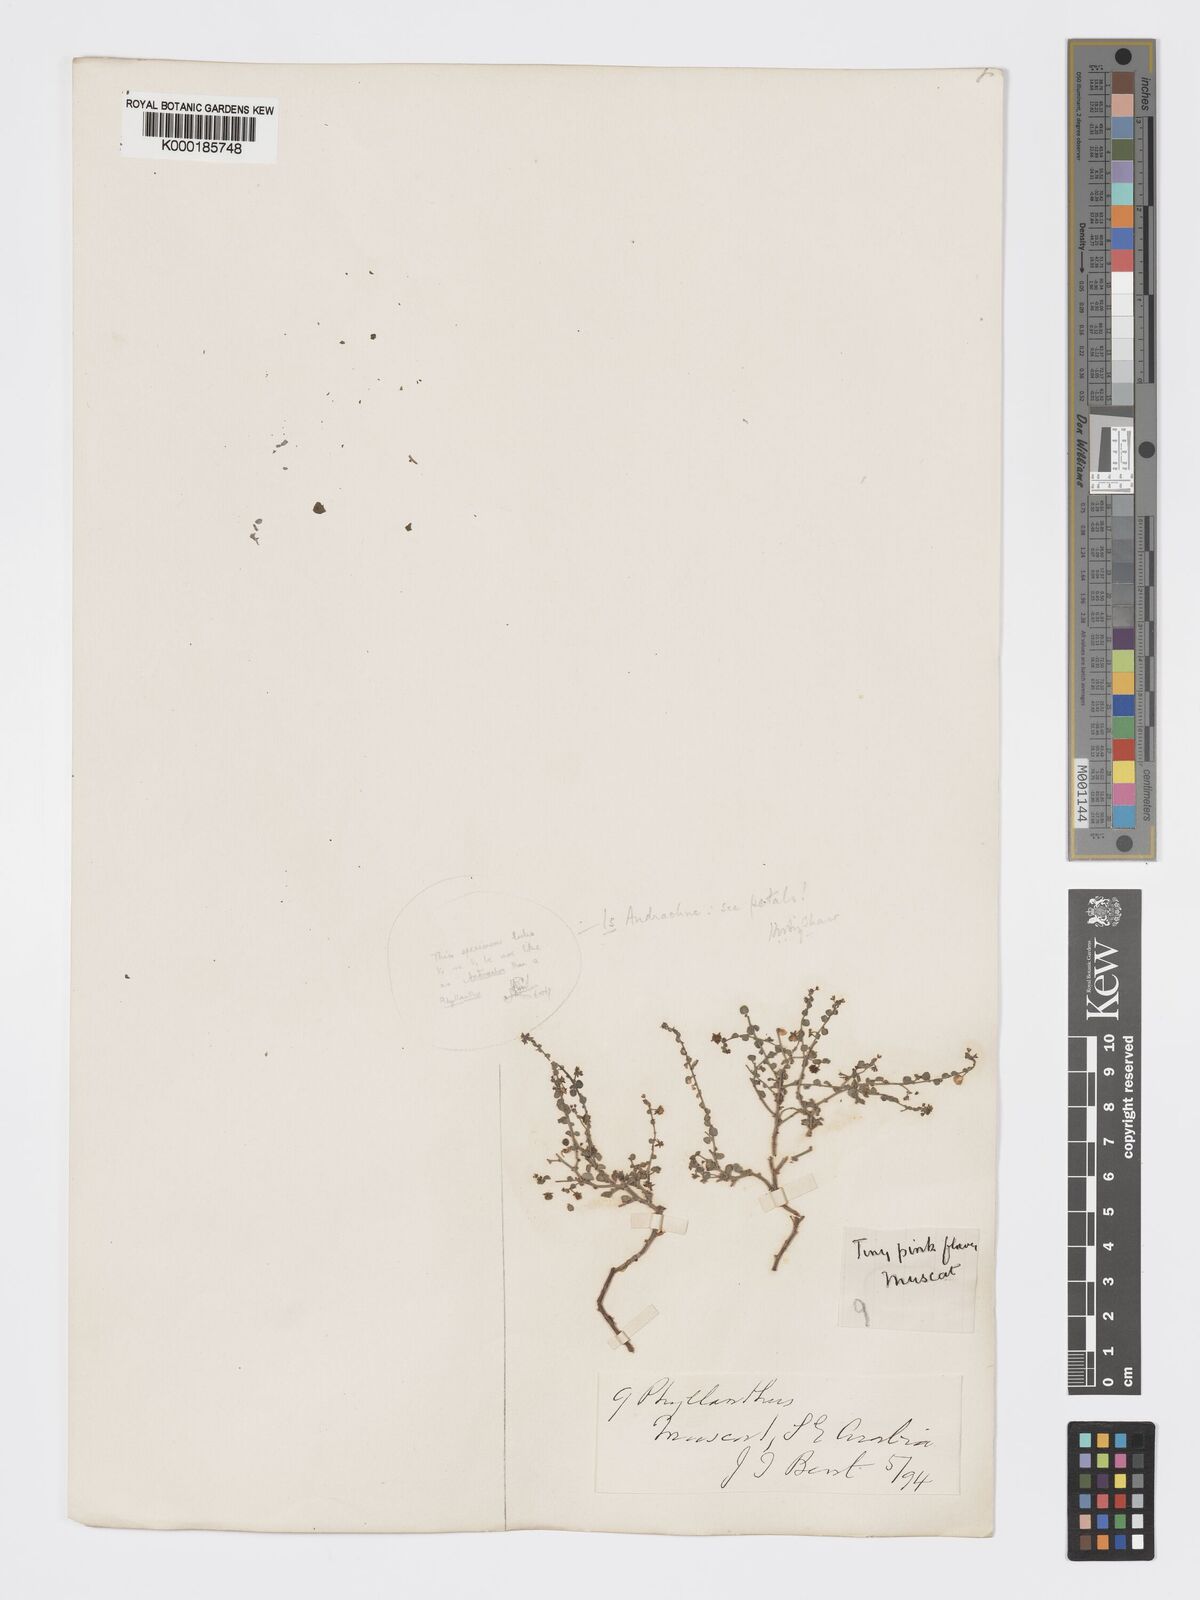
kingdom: Plantae
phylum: Tracheophyta
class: Magnoliopsida
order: Malpighiales
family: Phyllanthaceae
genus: Andrachne
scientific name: Andrachne aspera
